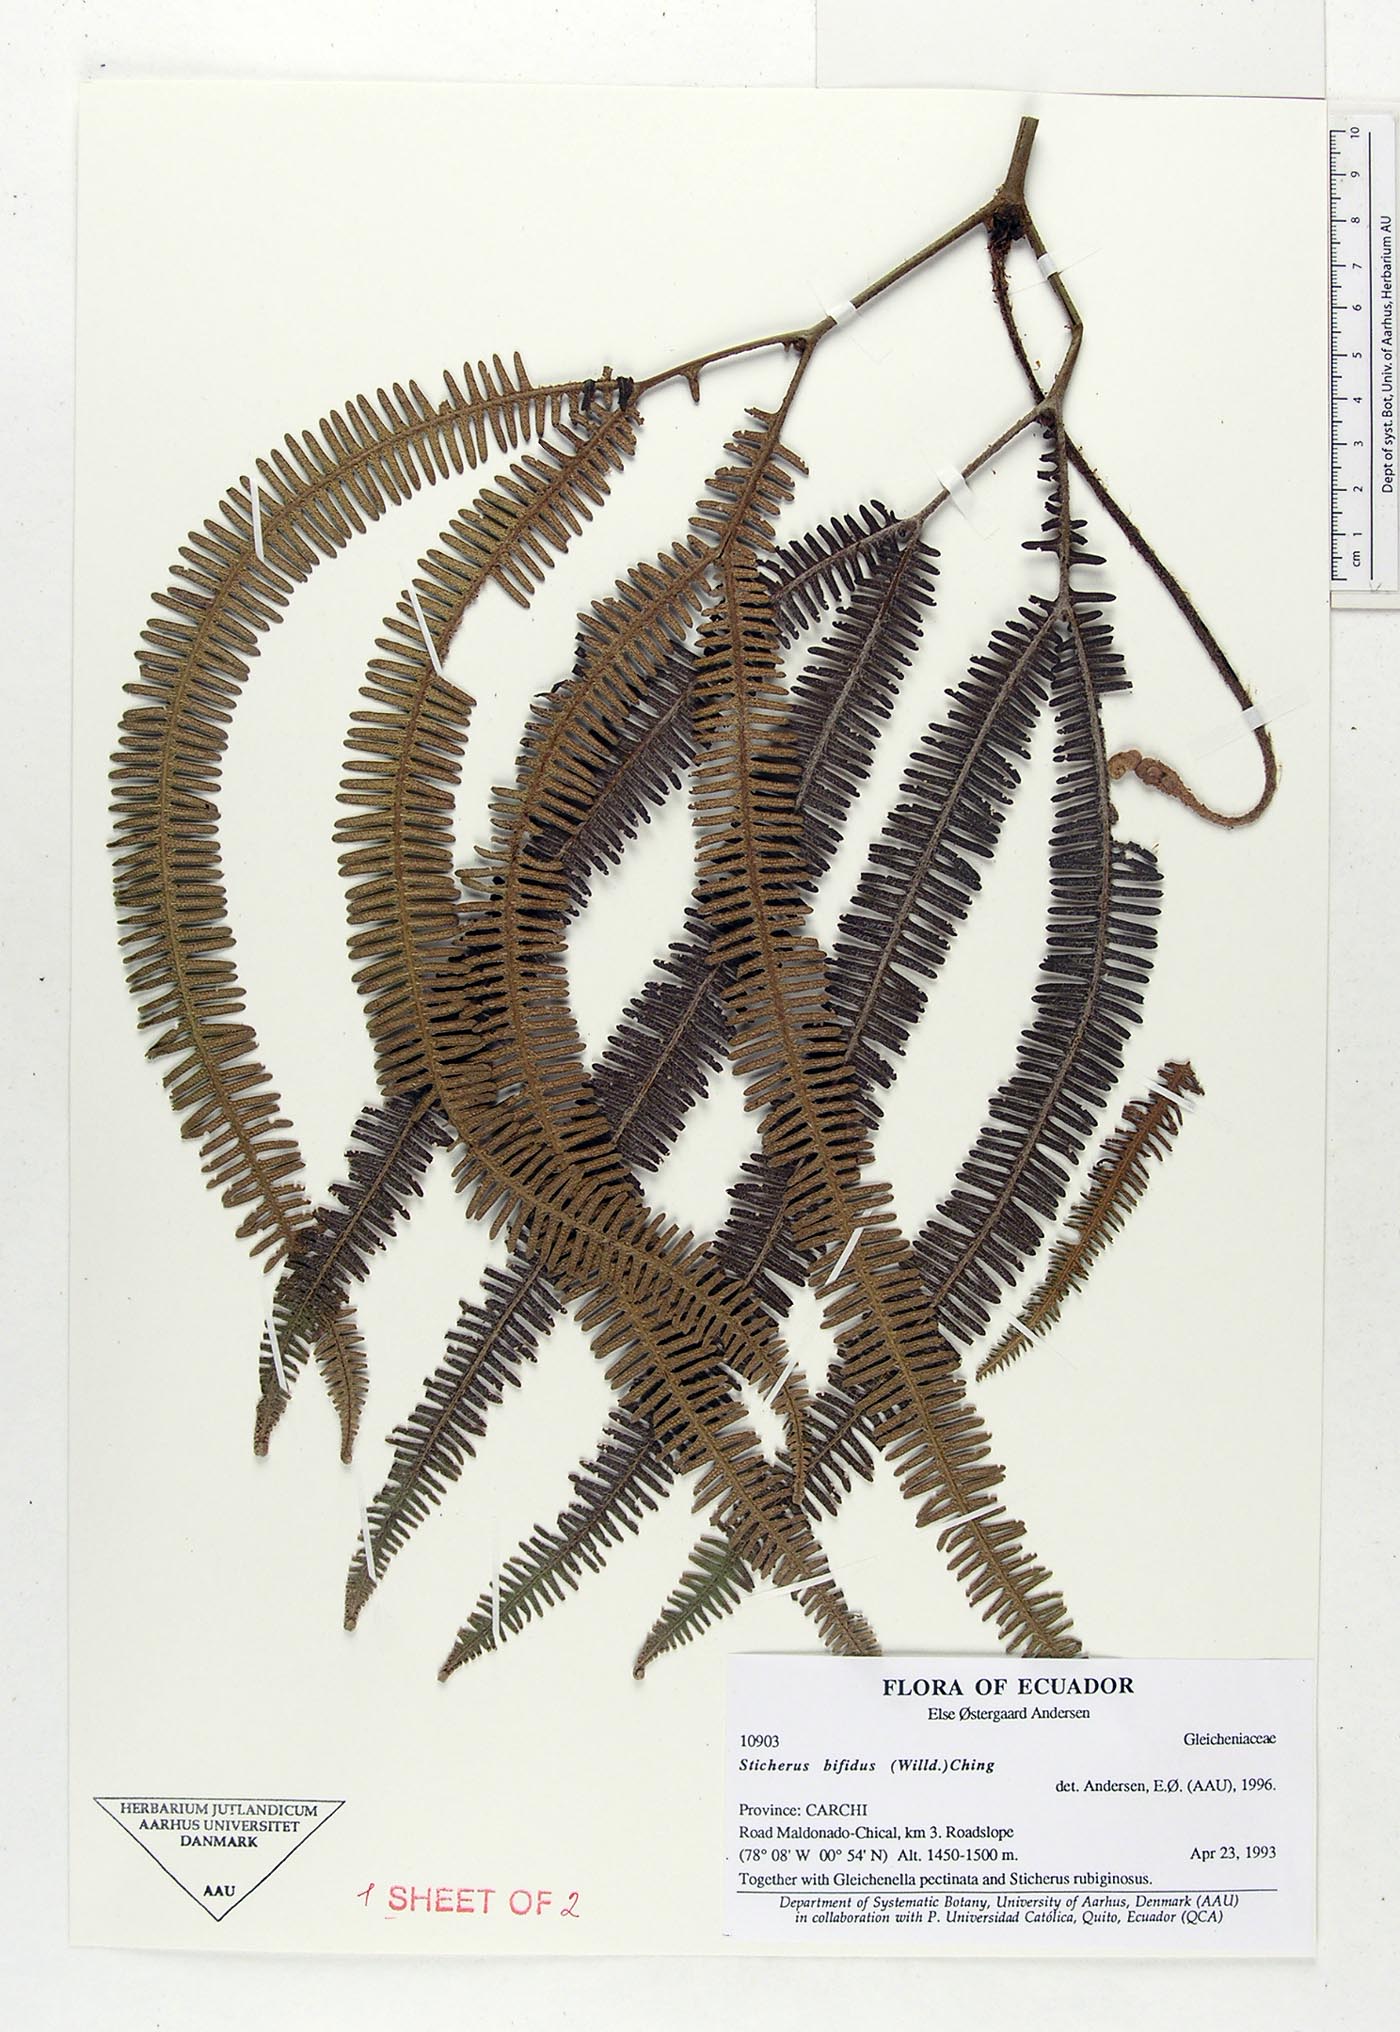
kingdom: Plantae
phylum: Tracheophyta
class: Polypodiopsida
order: Gleicheniales
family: Gleicheniaceae
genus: Sticherus
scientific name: Sticherus bifidus
